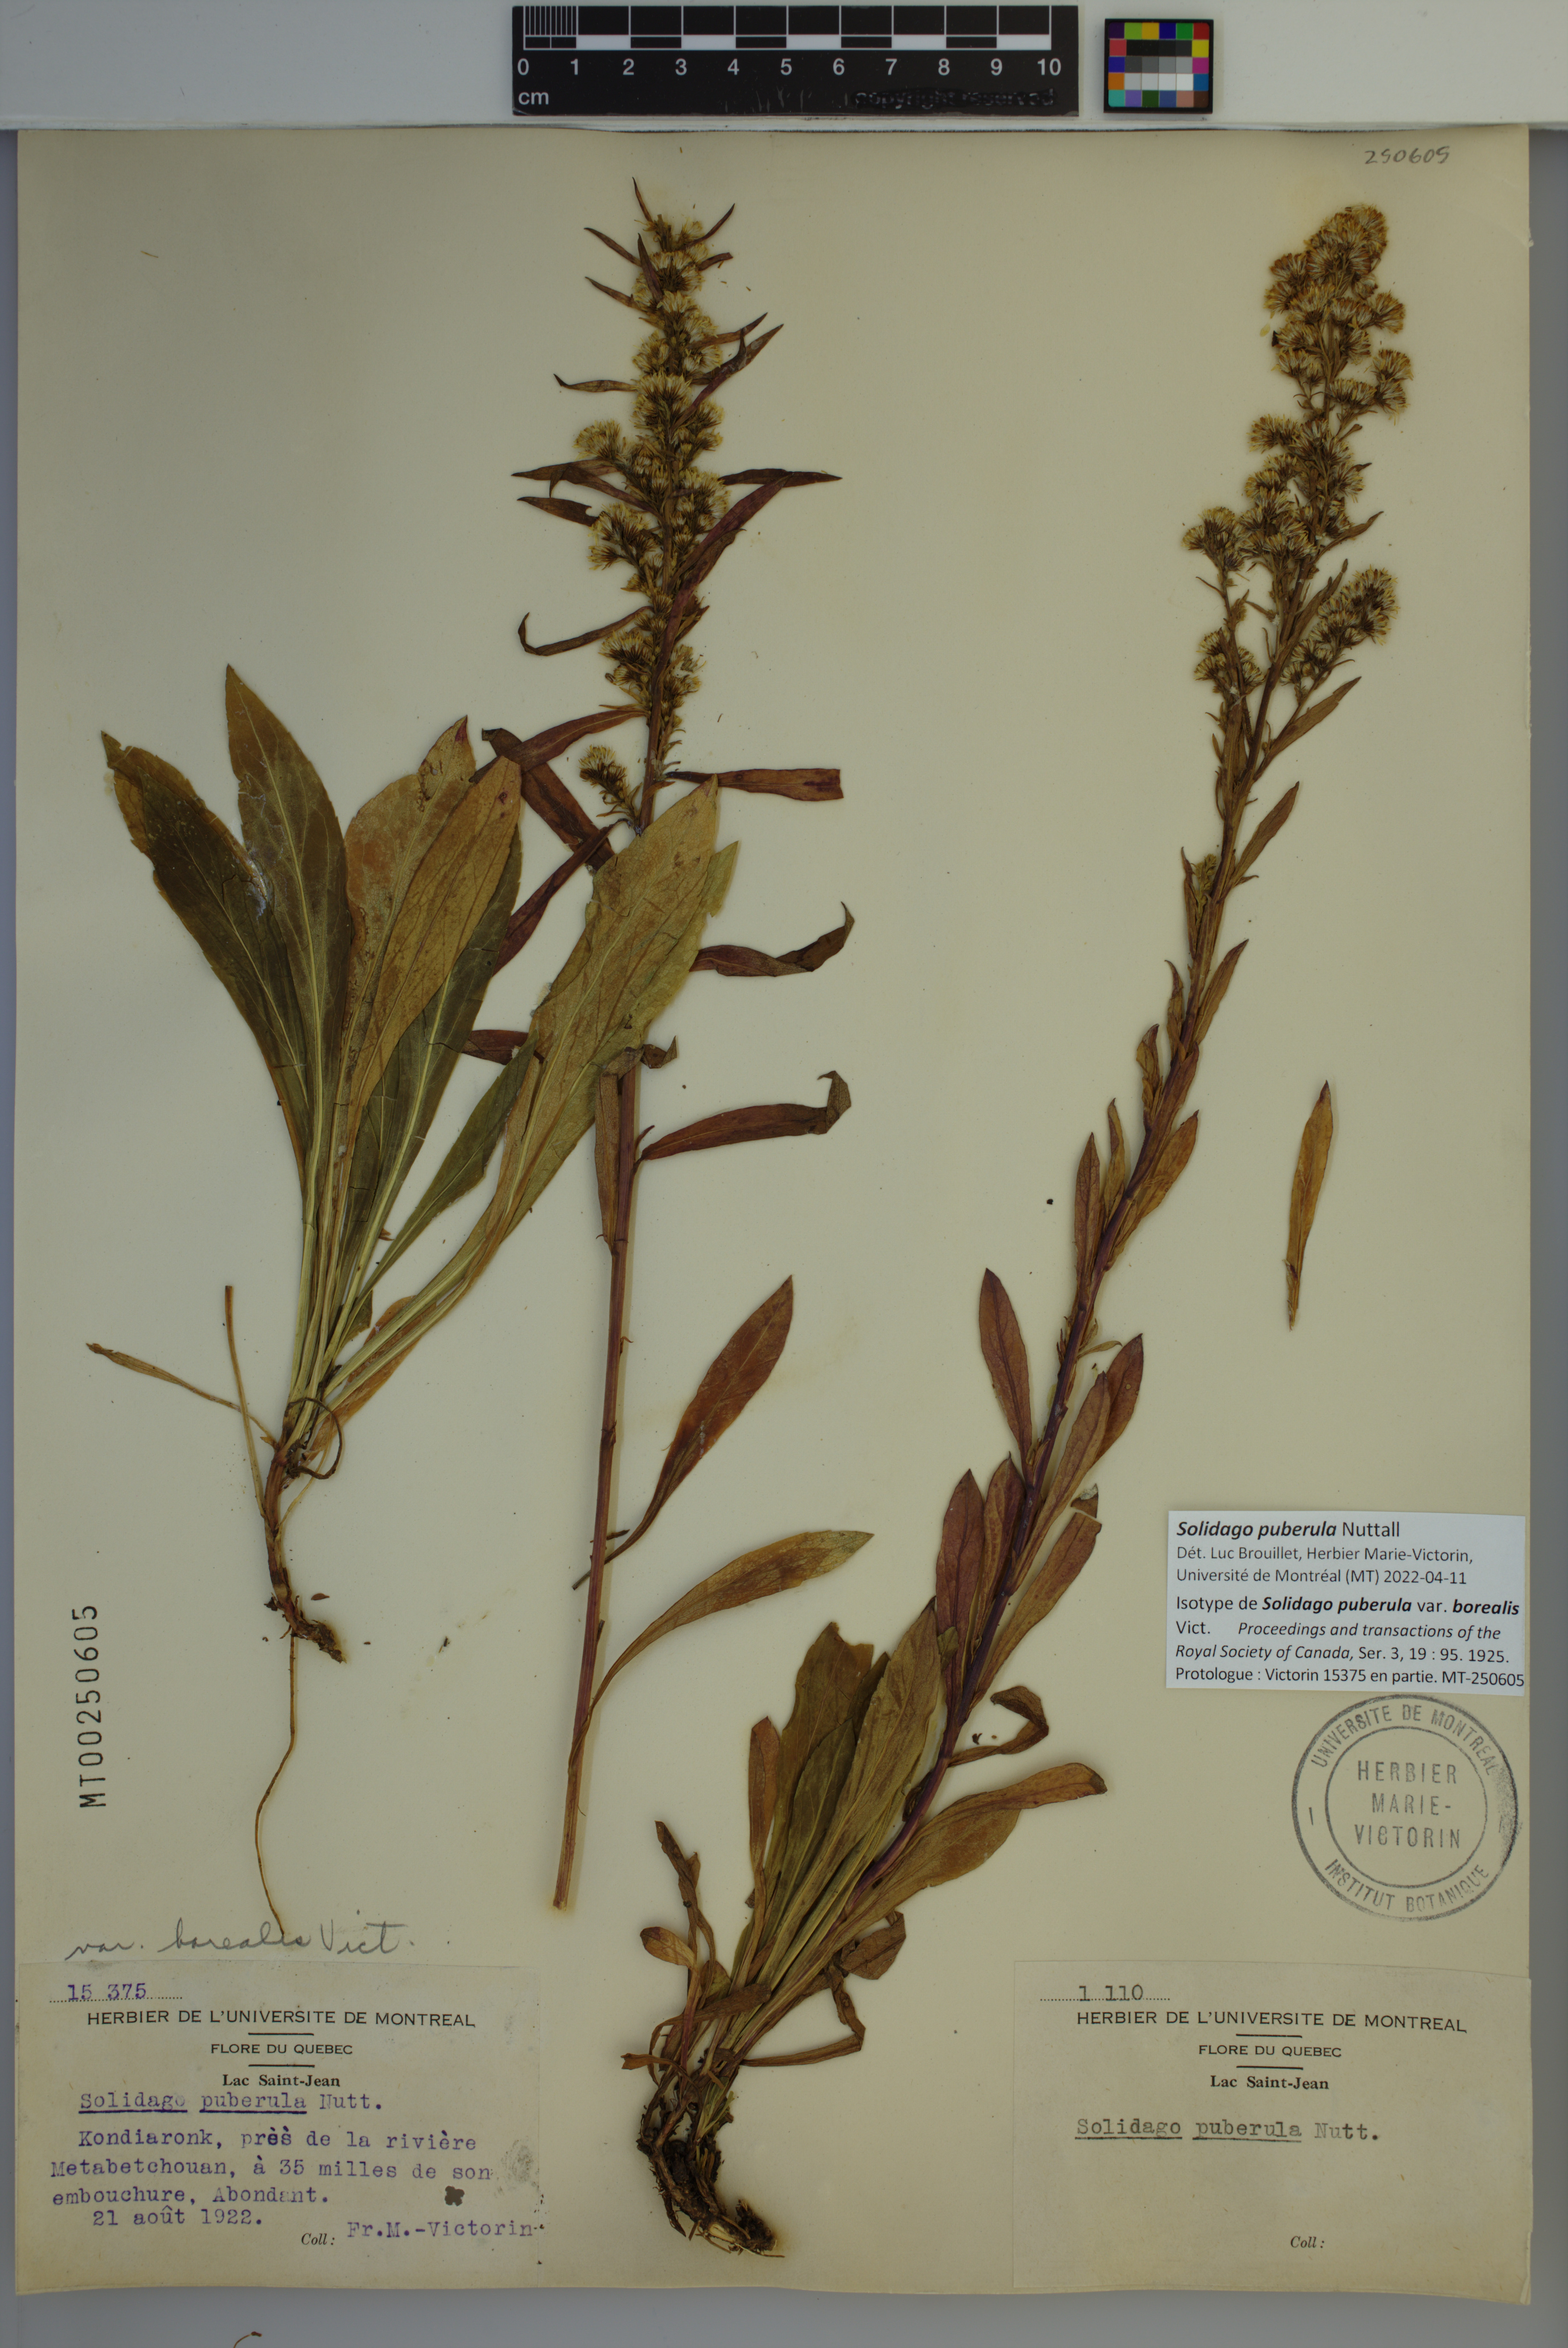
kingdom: Plantae
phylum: Tracheophyta
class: Magnoliopsida
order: Asterales
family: Asteraceae
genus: Solidago
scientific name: Solidago puberula
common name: Downy goldenrod
